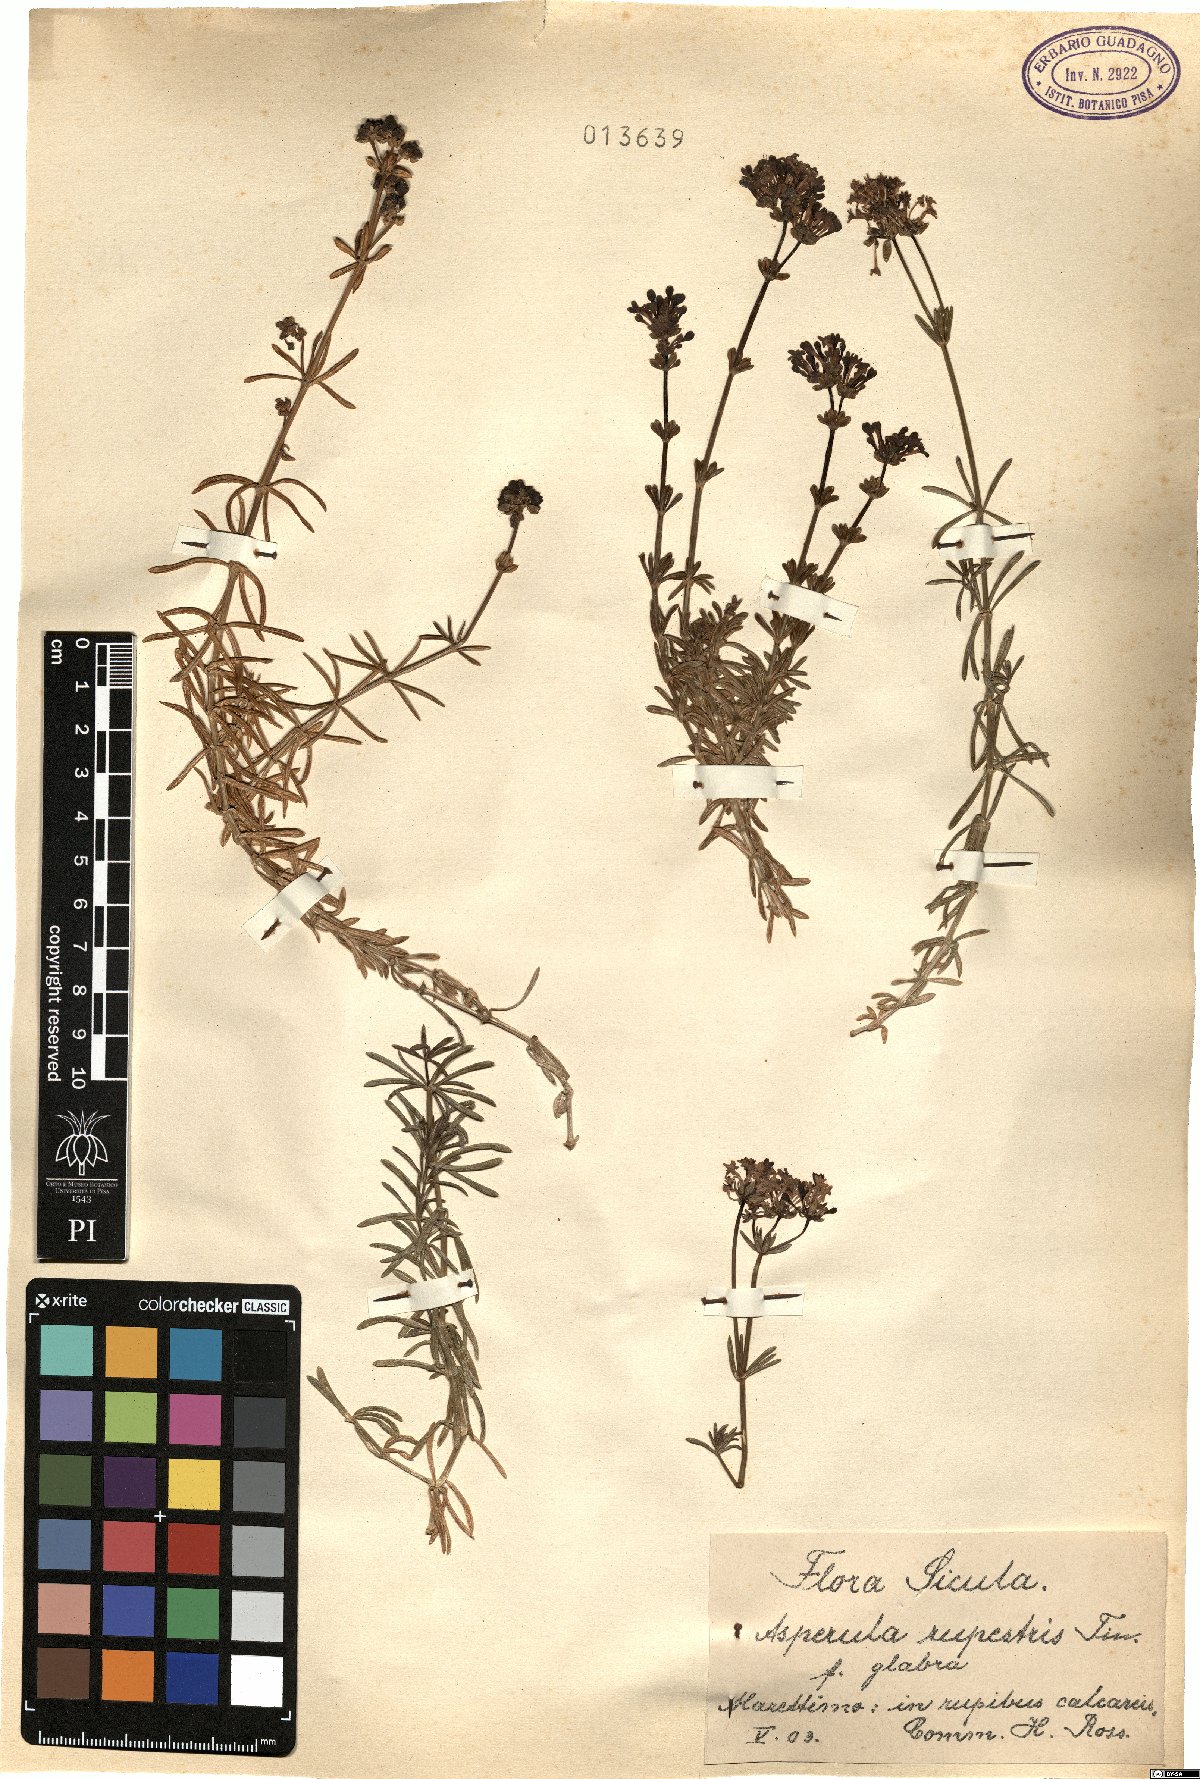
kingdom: Plantae
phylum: Tracheophyta
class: Magnoliopsida
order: Gentianales
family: Rubiaceae
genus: Hexaphylla
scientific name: Hexaphylla rupestris
